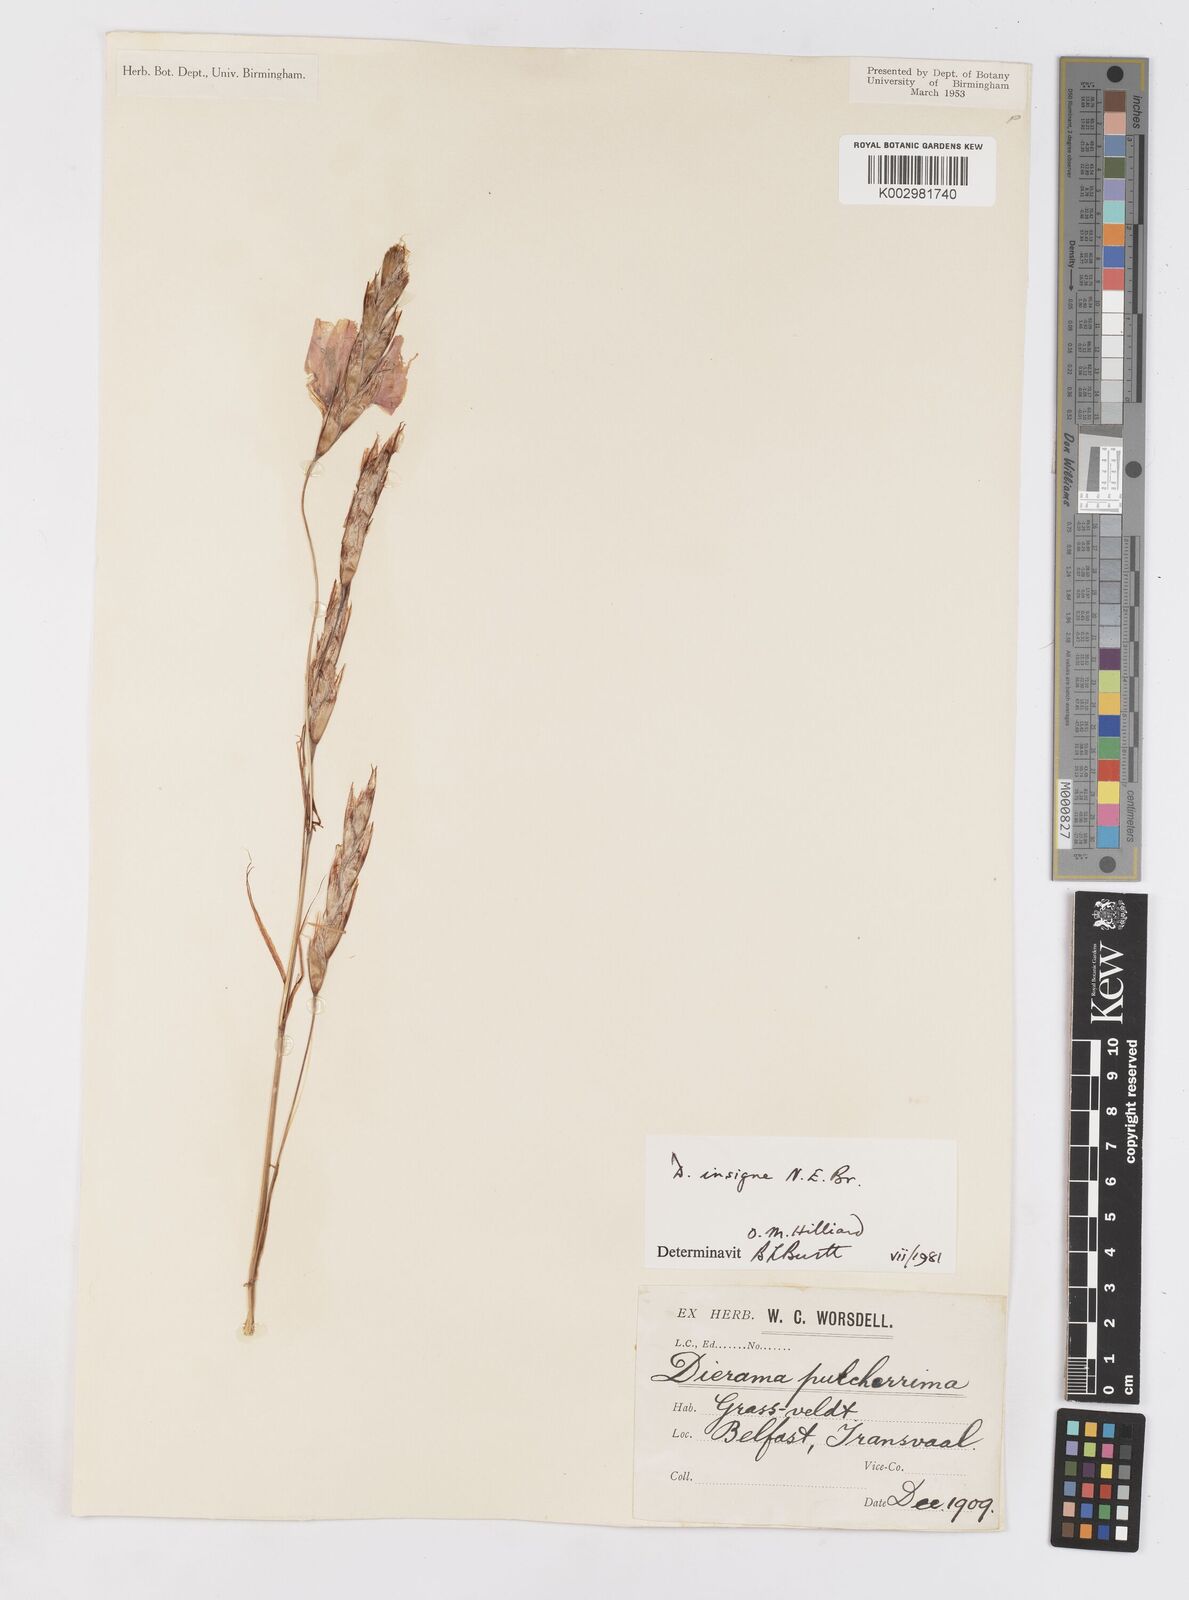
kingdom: Plantae
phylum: Tracheophyta
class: Liliopsida
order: Asparagales
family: Iridaceae
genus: Dierama
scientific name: Dierama insigne
